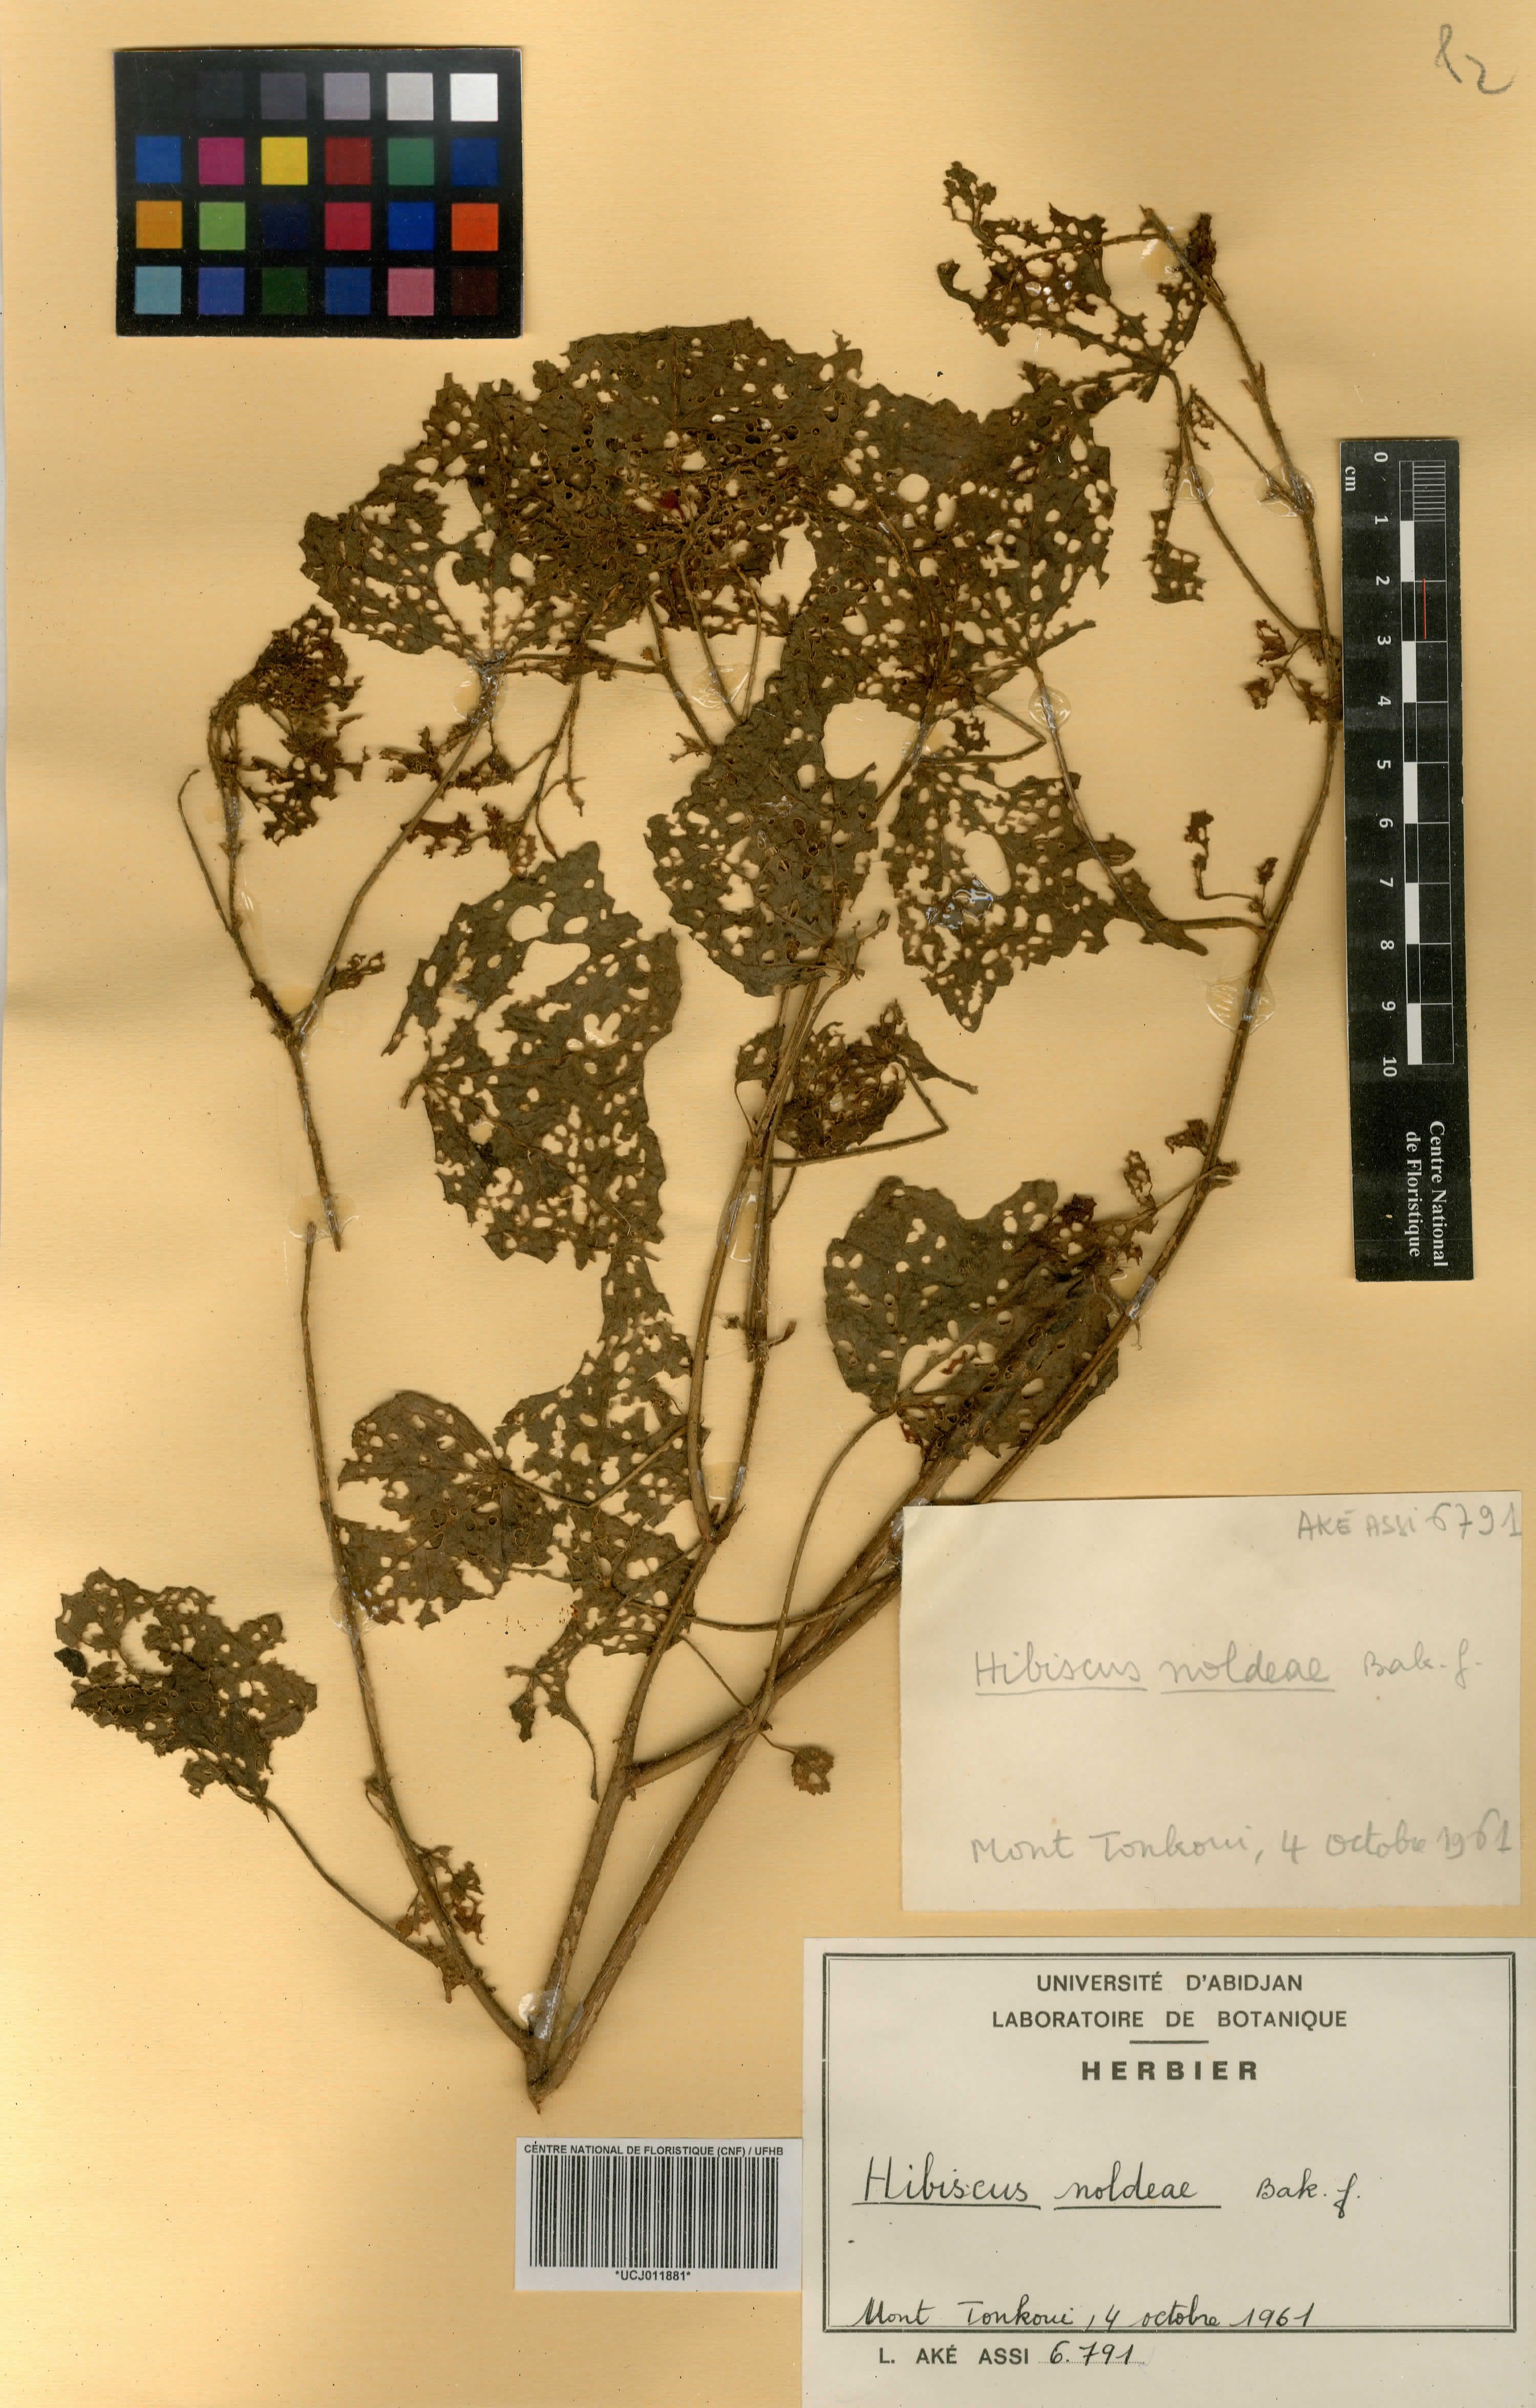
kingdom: Plantae
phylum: Tracheophyta
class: Magnoliopsida
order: Malvales
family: Malvaceae
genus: Hibiscus
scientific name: Hibiscus noldeae
